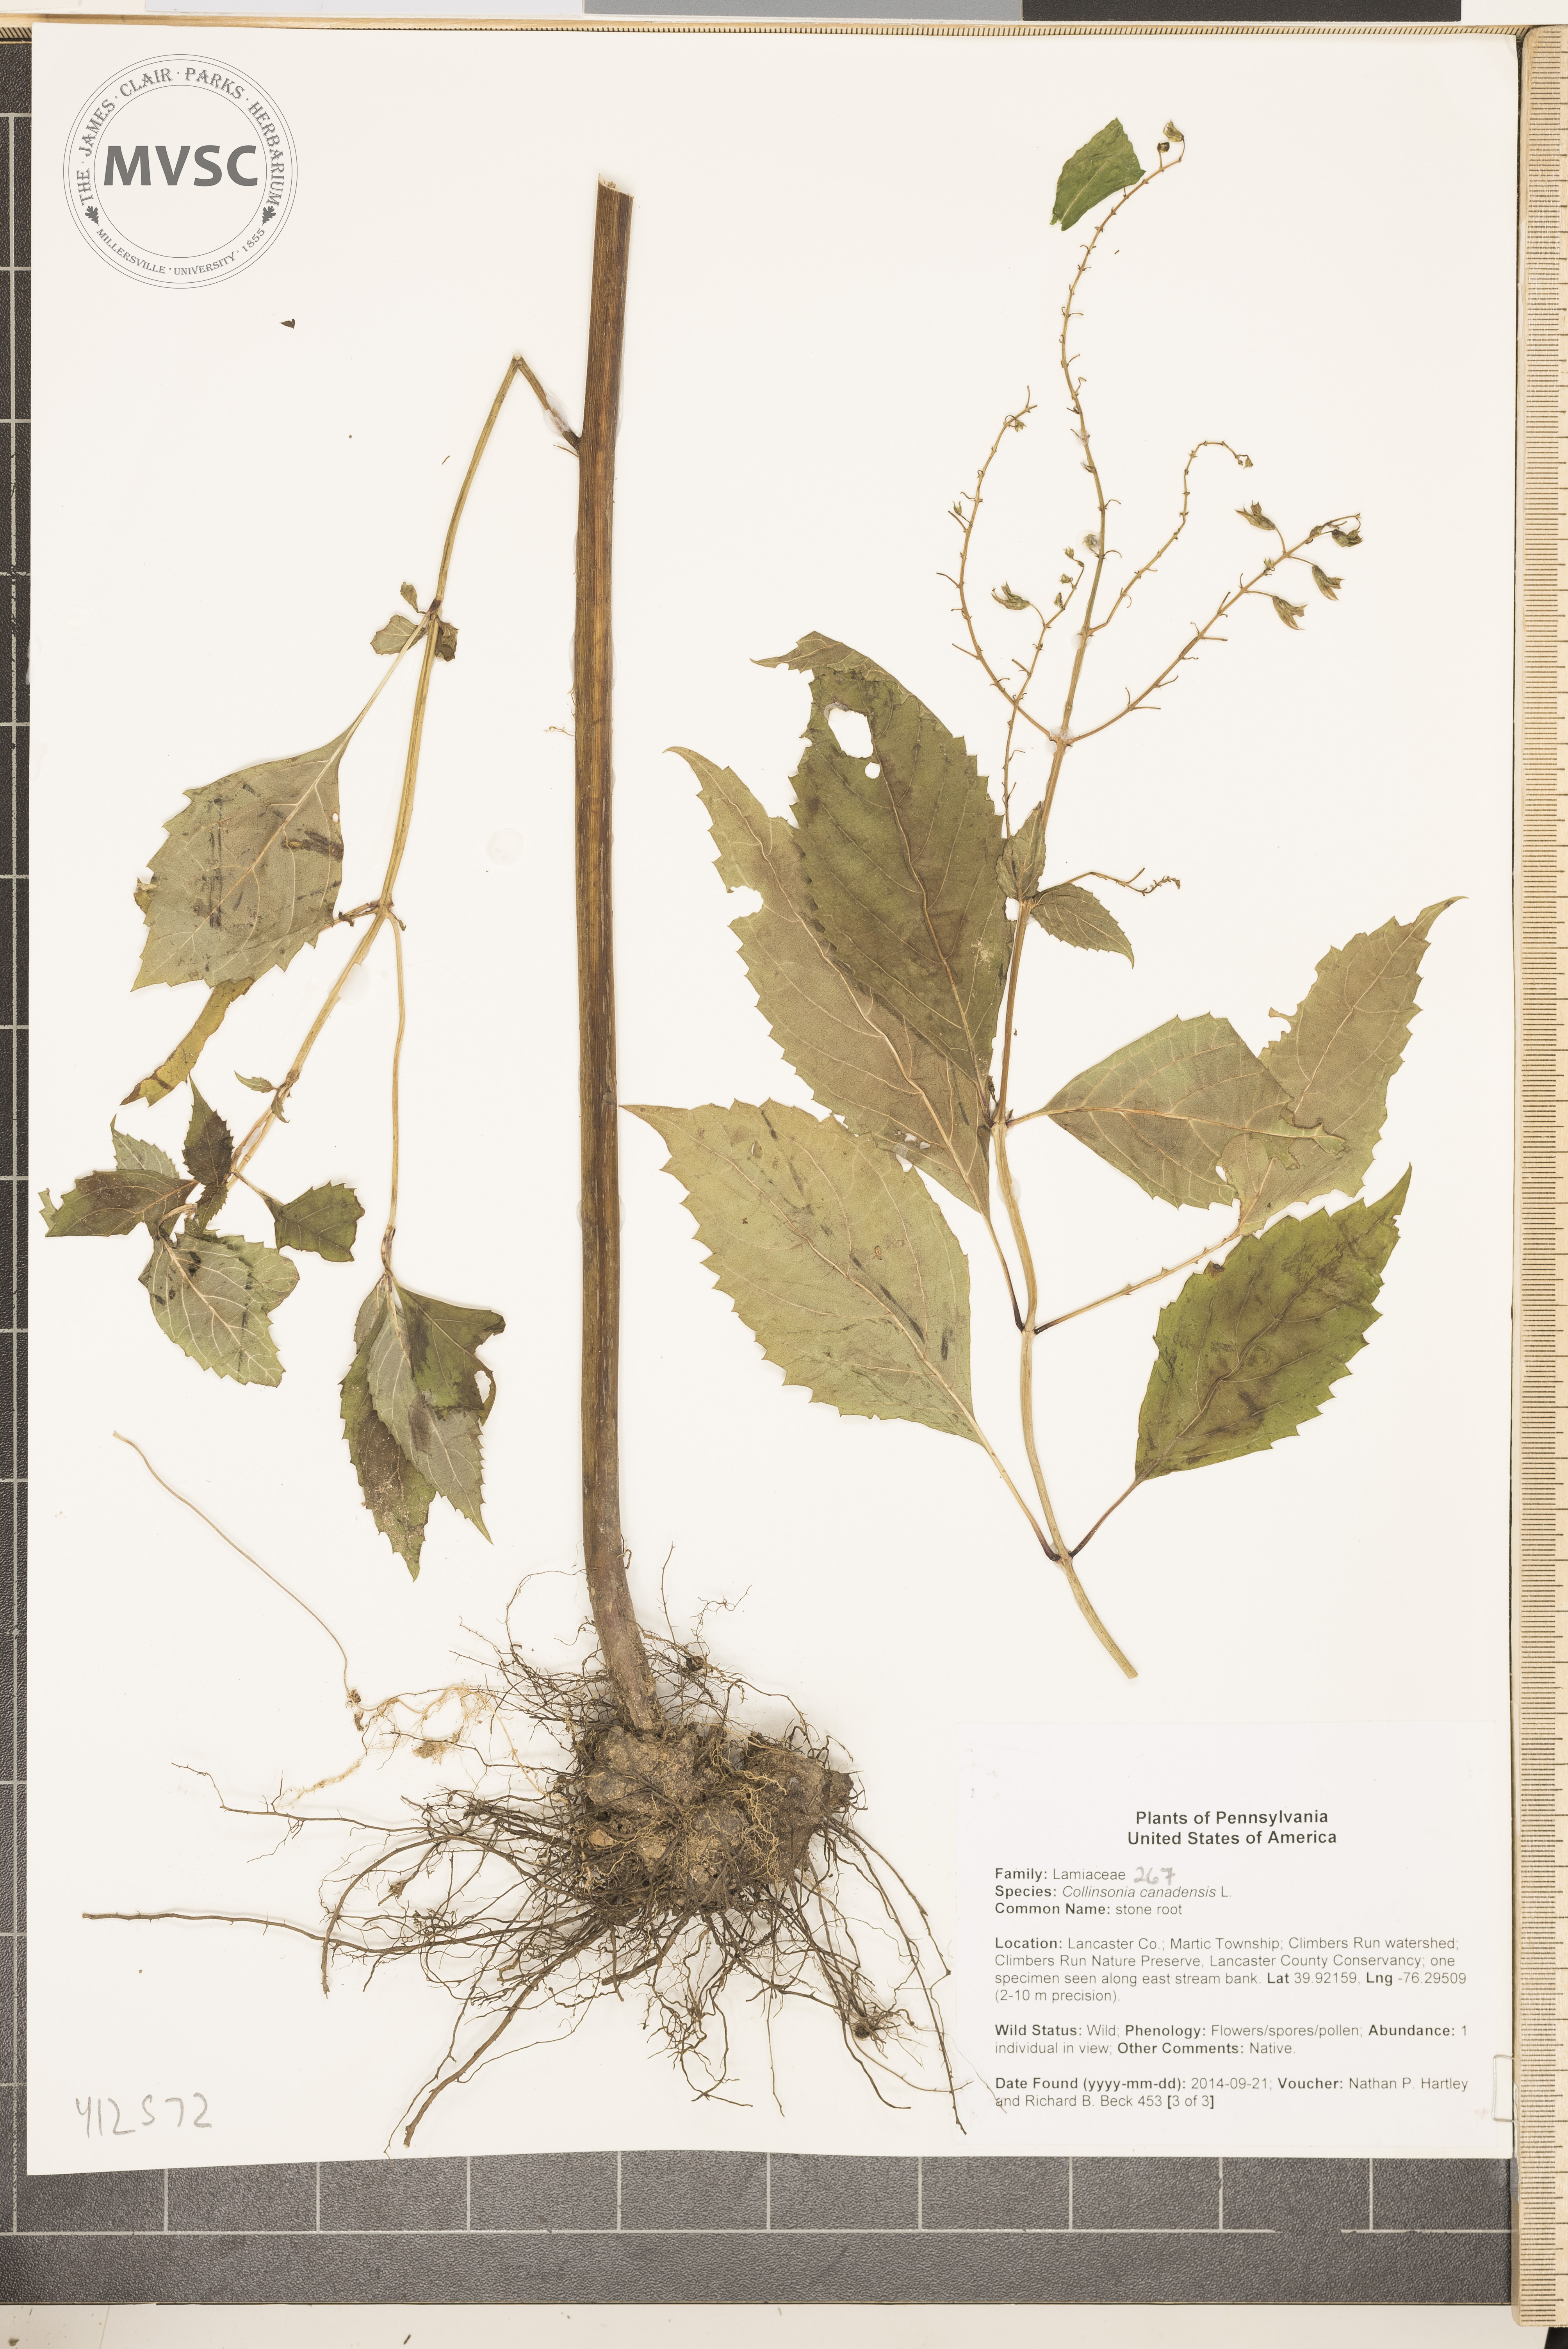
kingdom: Plantae
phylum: Tracheophyta
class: Magnoliopsida
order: Lamiales
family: Lamiaceae
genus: Collinsonia
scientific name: Collinsonia canadensis
